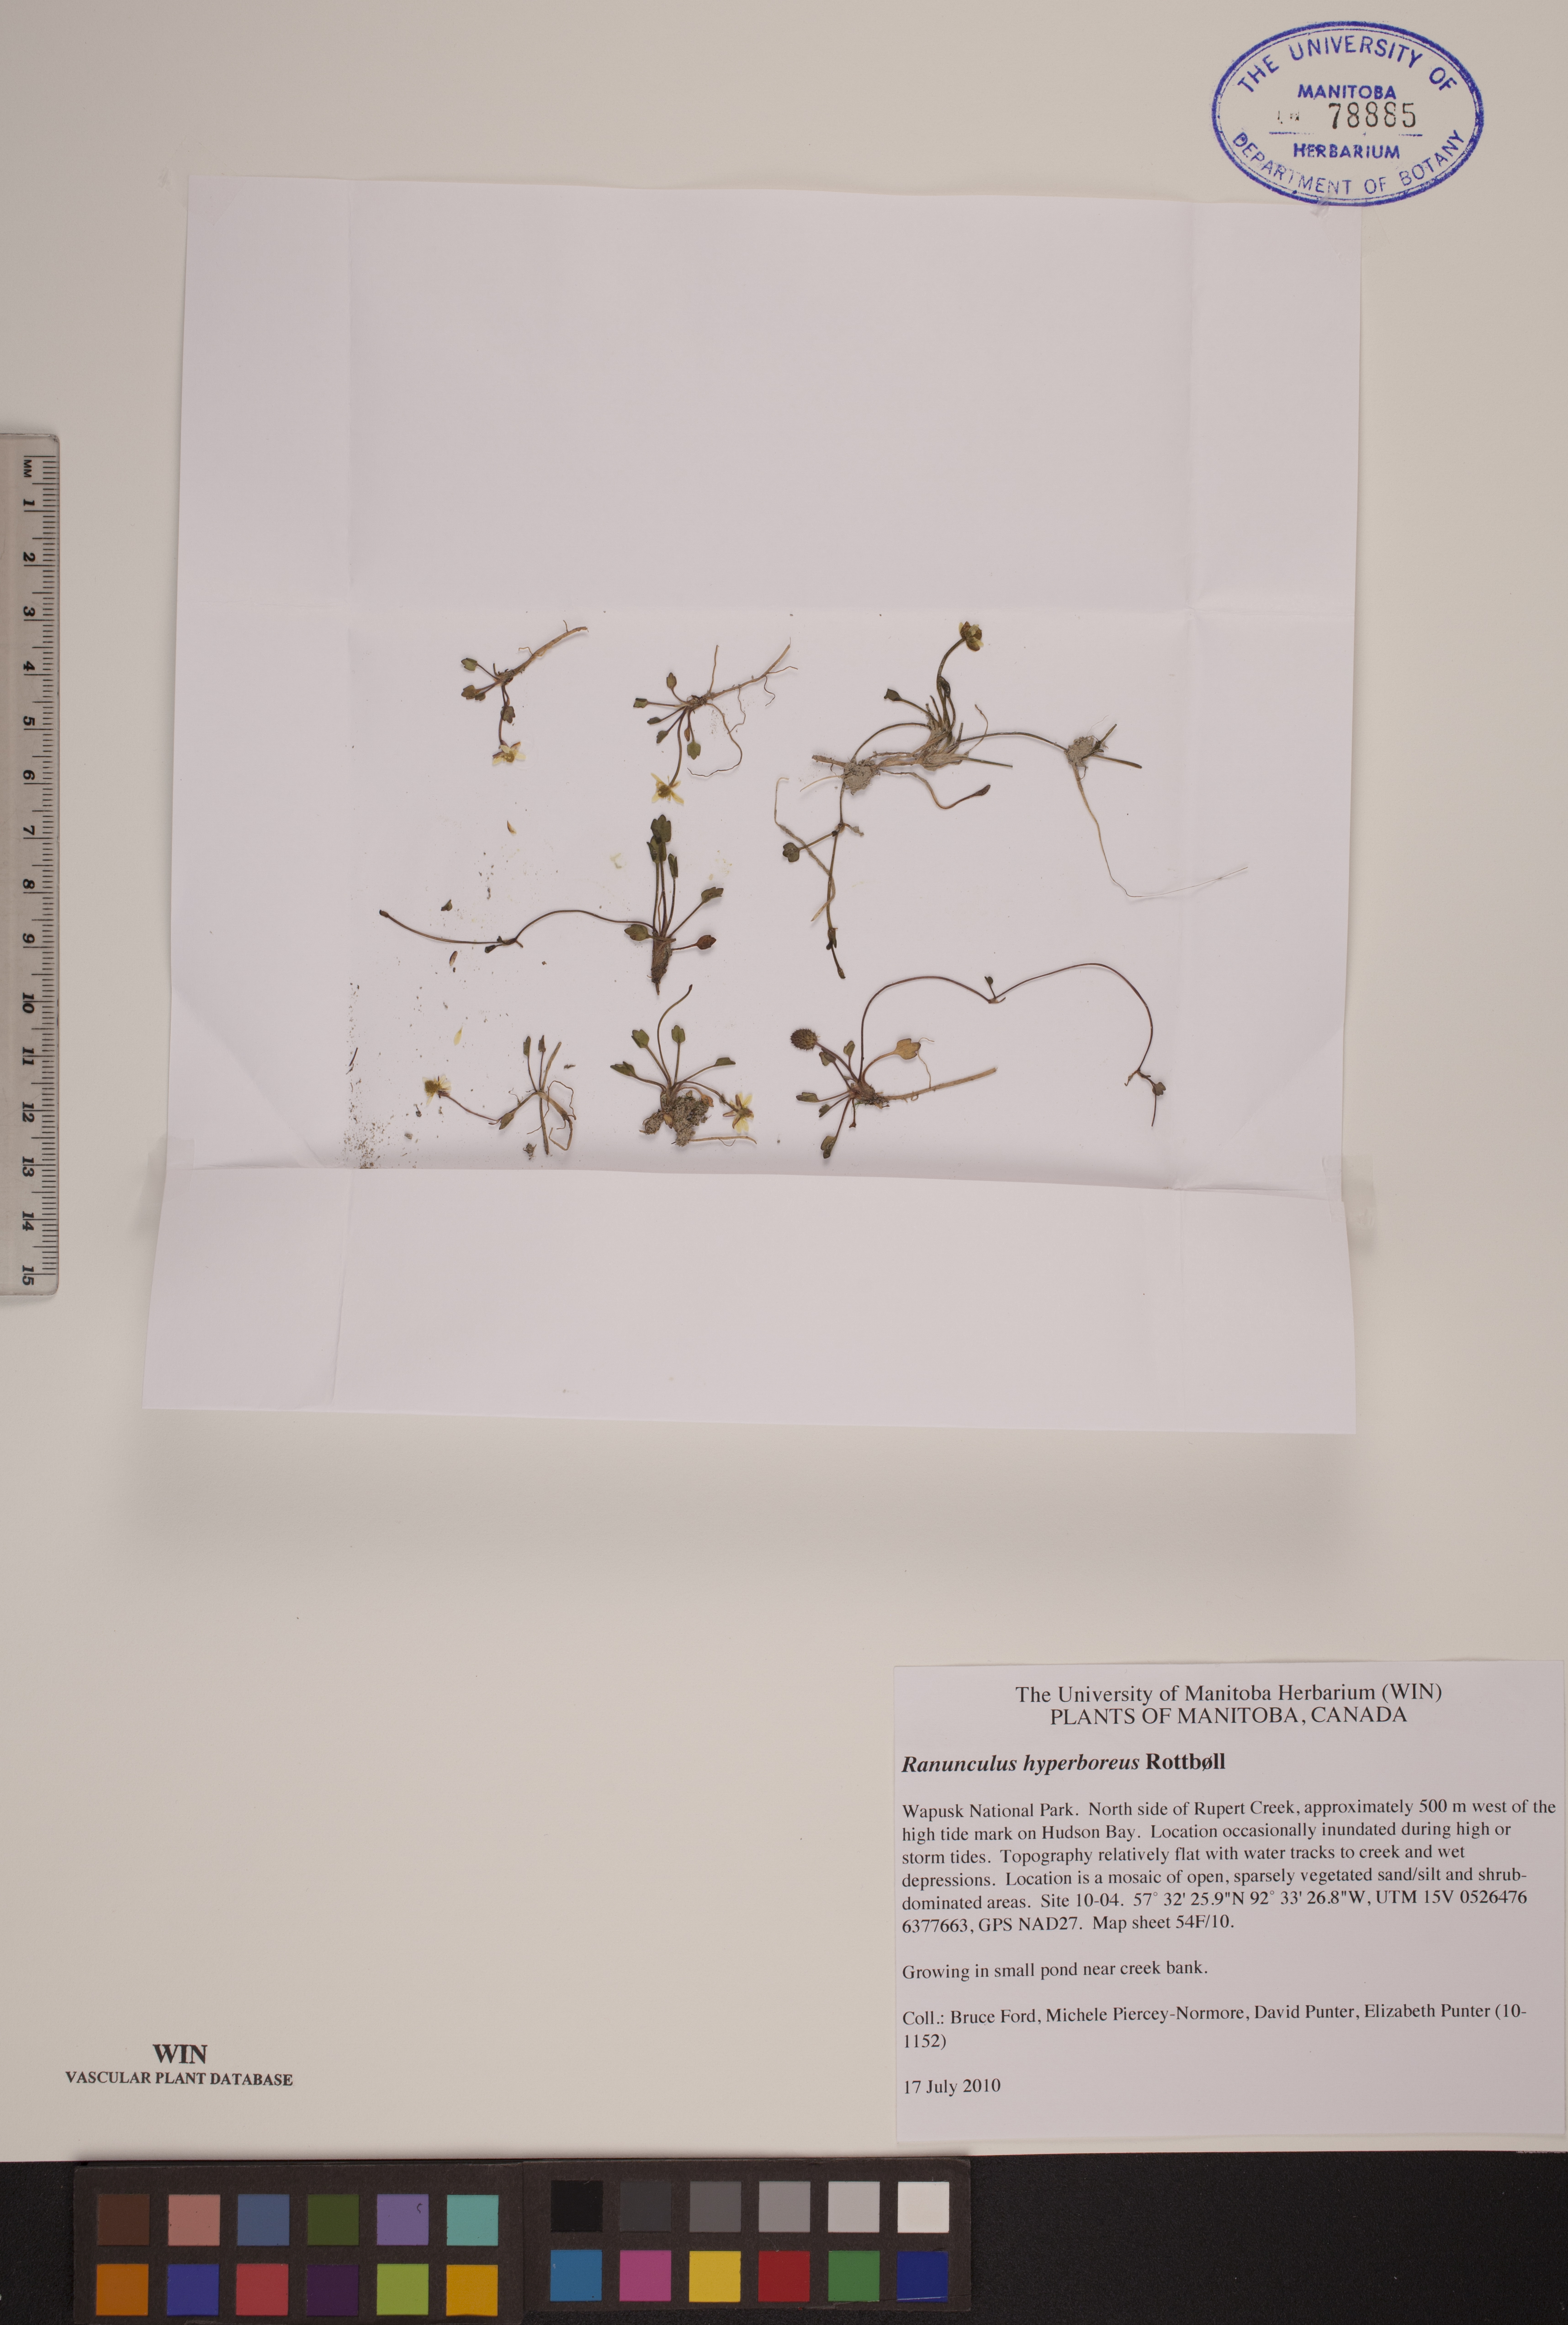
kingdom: Plantae
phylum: Tracheophyta
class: Magnoliopsida
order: Ranunculales
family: Ranunculaceae
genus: Ranunculus
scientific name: Ranunculus hyperboreus
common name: Arctic buttercup
